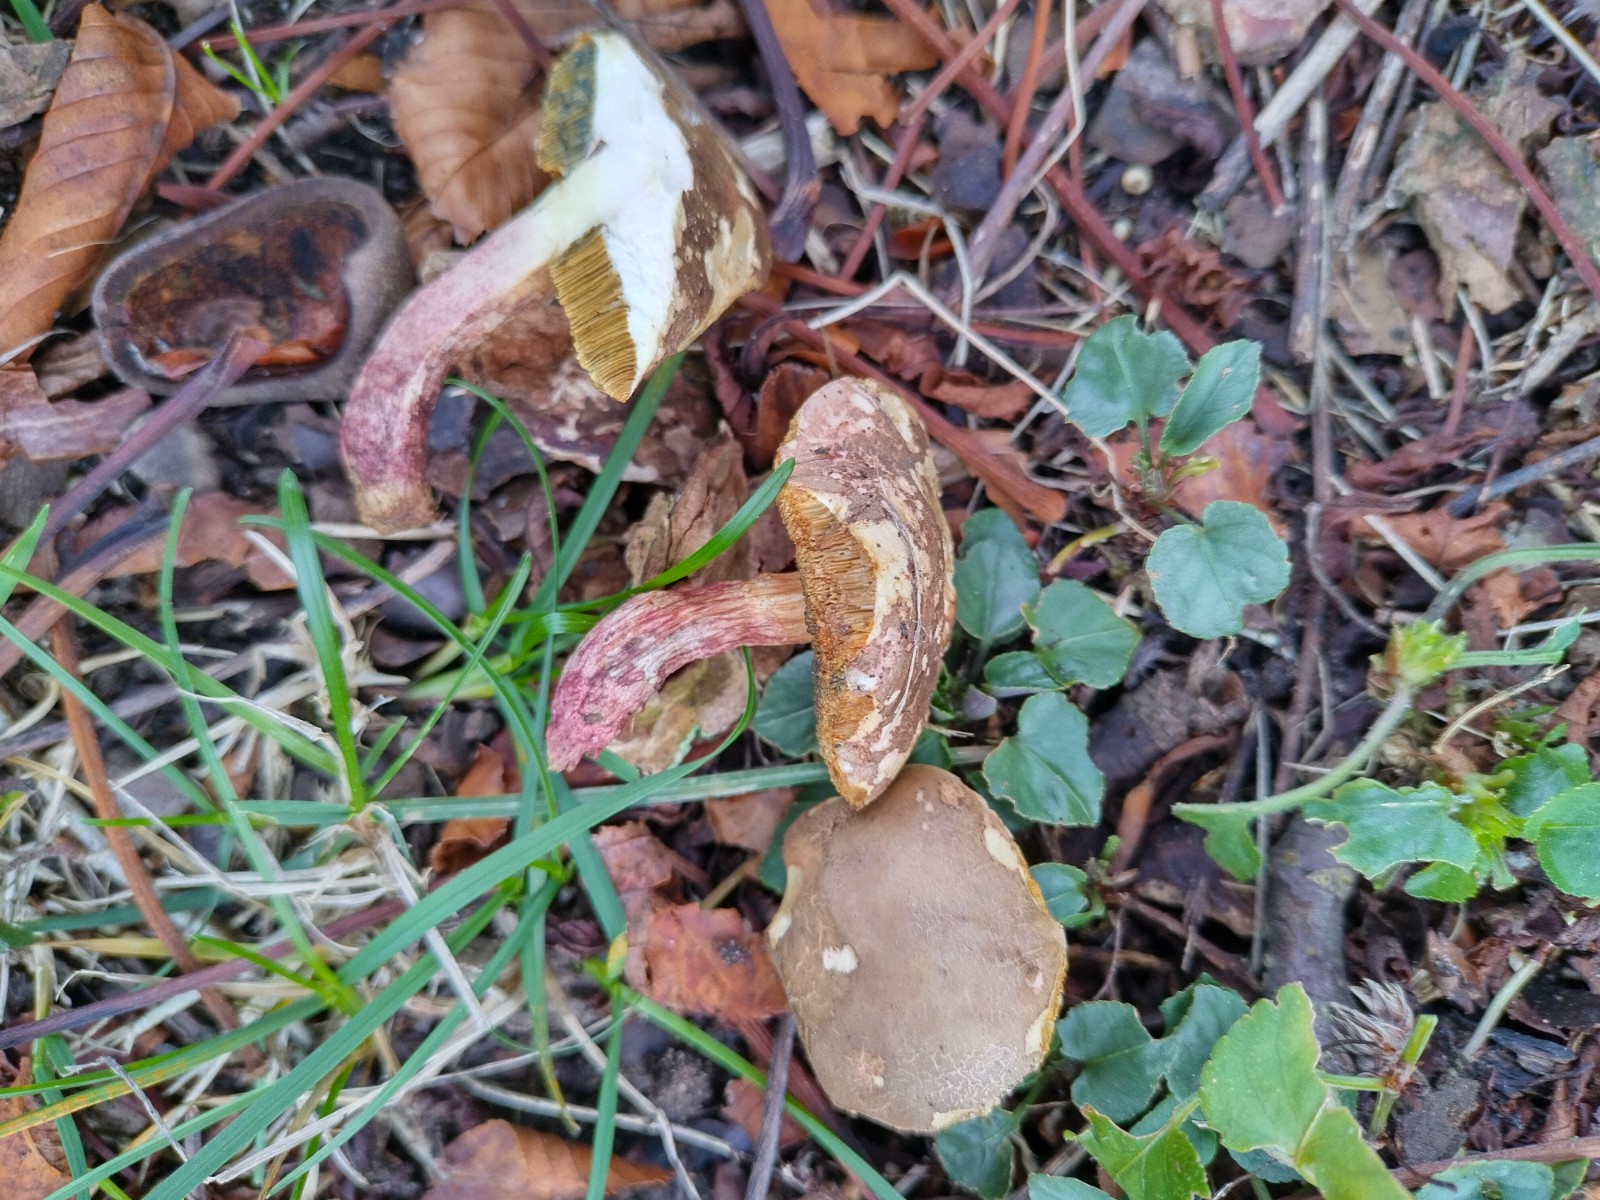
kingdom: Fungi
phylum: Basidiomycota
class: Agaricomycetes
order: Boletales
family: Boletaceae
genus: Xerocomellus
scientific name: Xerocomellus porosporus
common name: hvidsprukken rørhat
